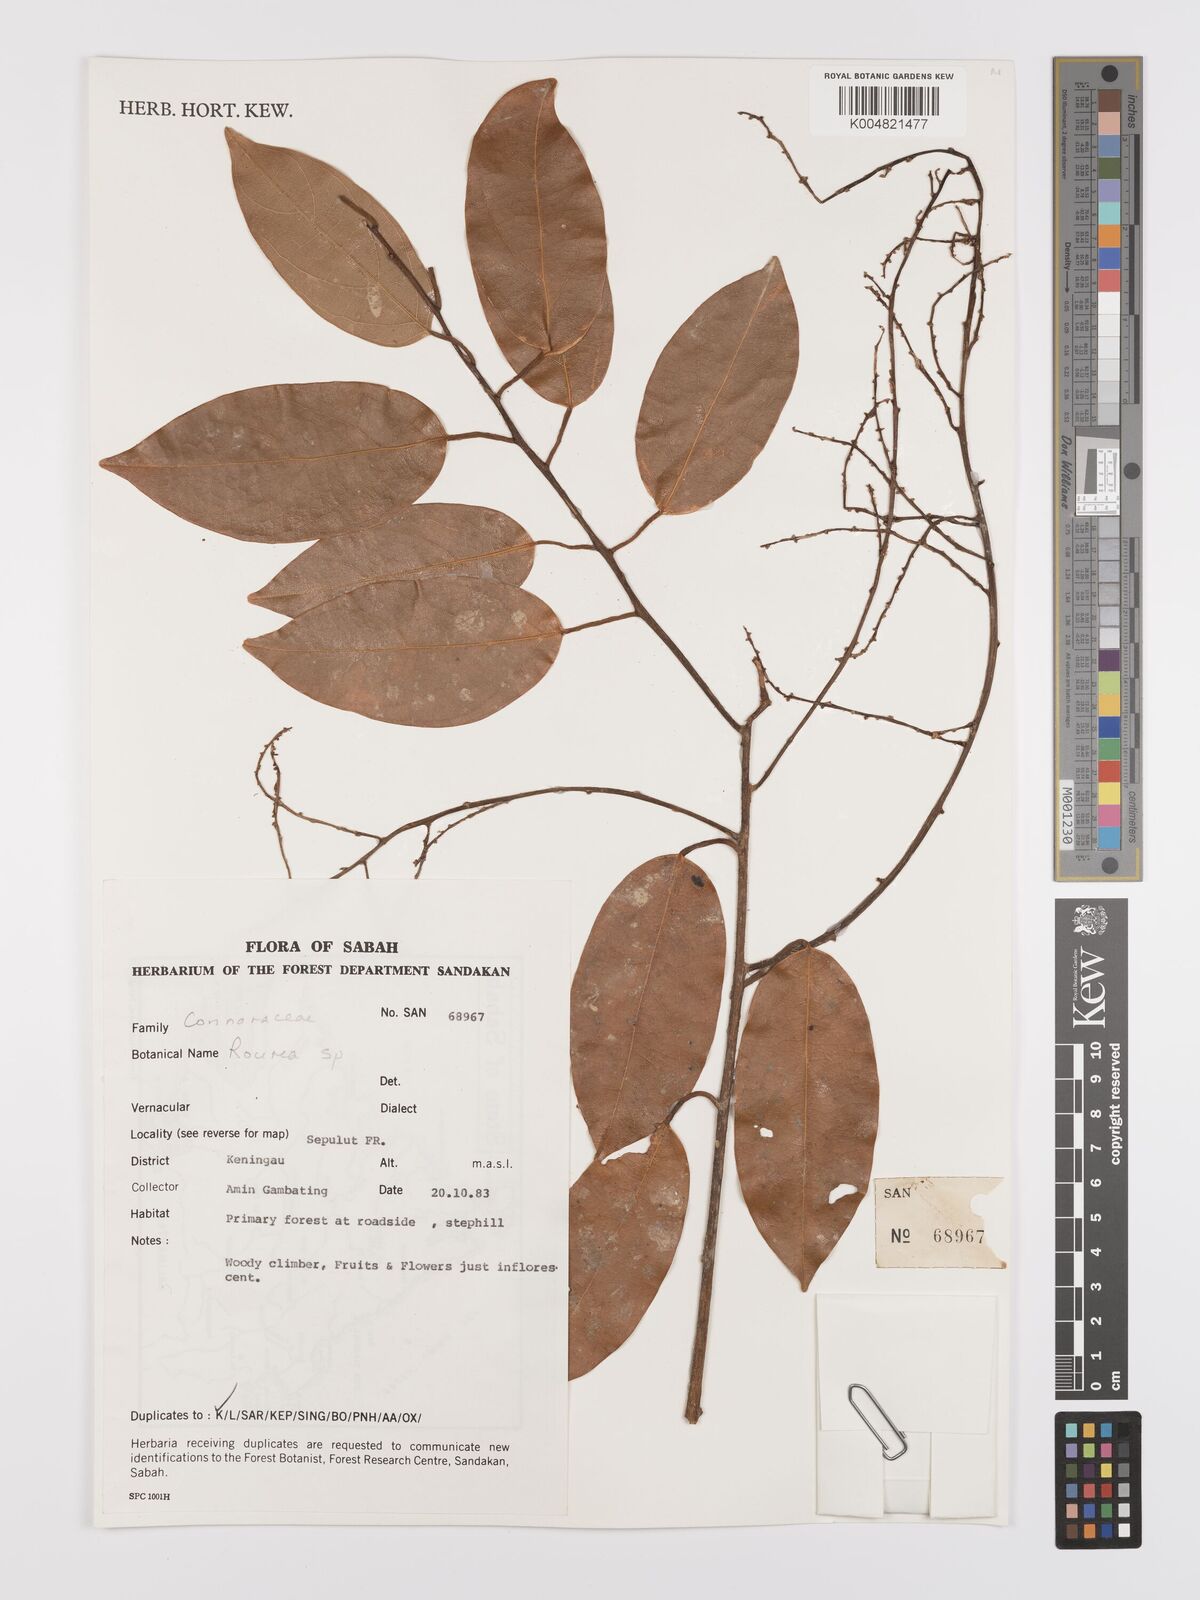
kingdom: Plantae
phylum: Tracheophyta
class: Magnoliopsida
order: Oxalidales
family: Connaraceae
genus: Rourea
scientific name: Rourea
